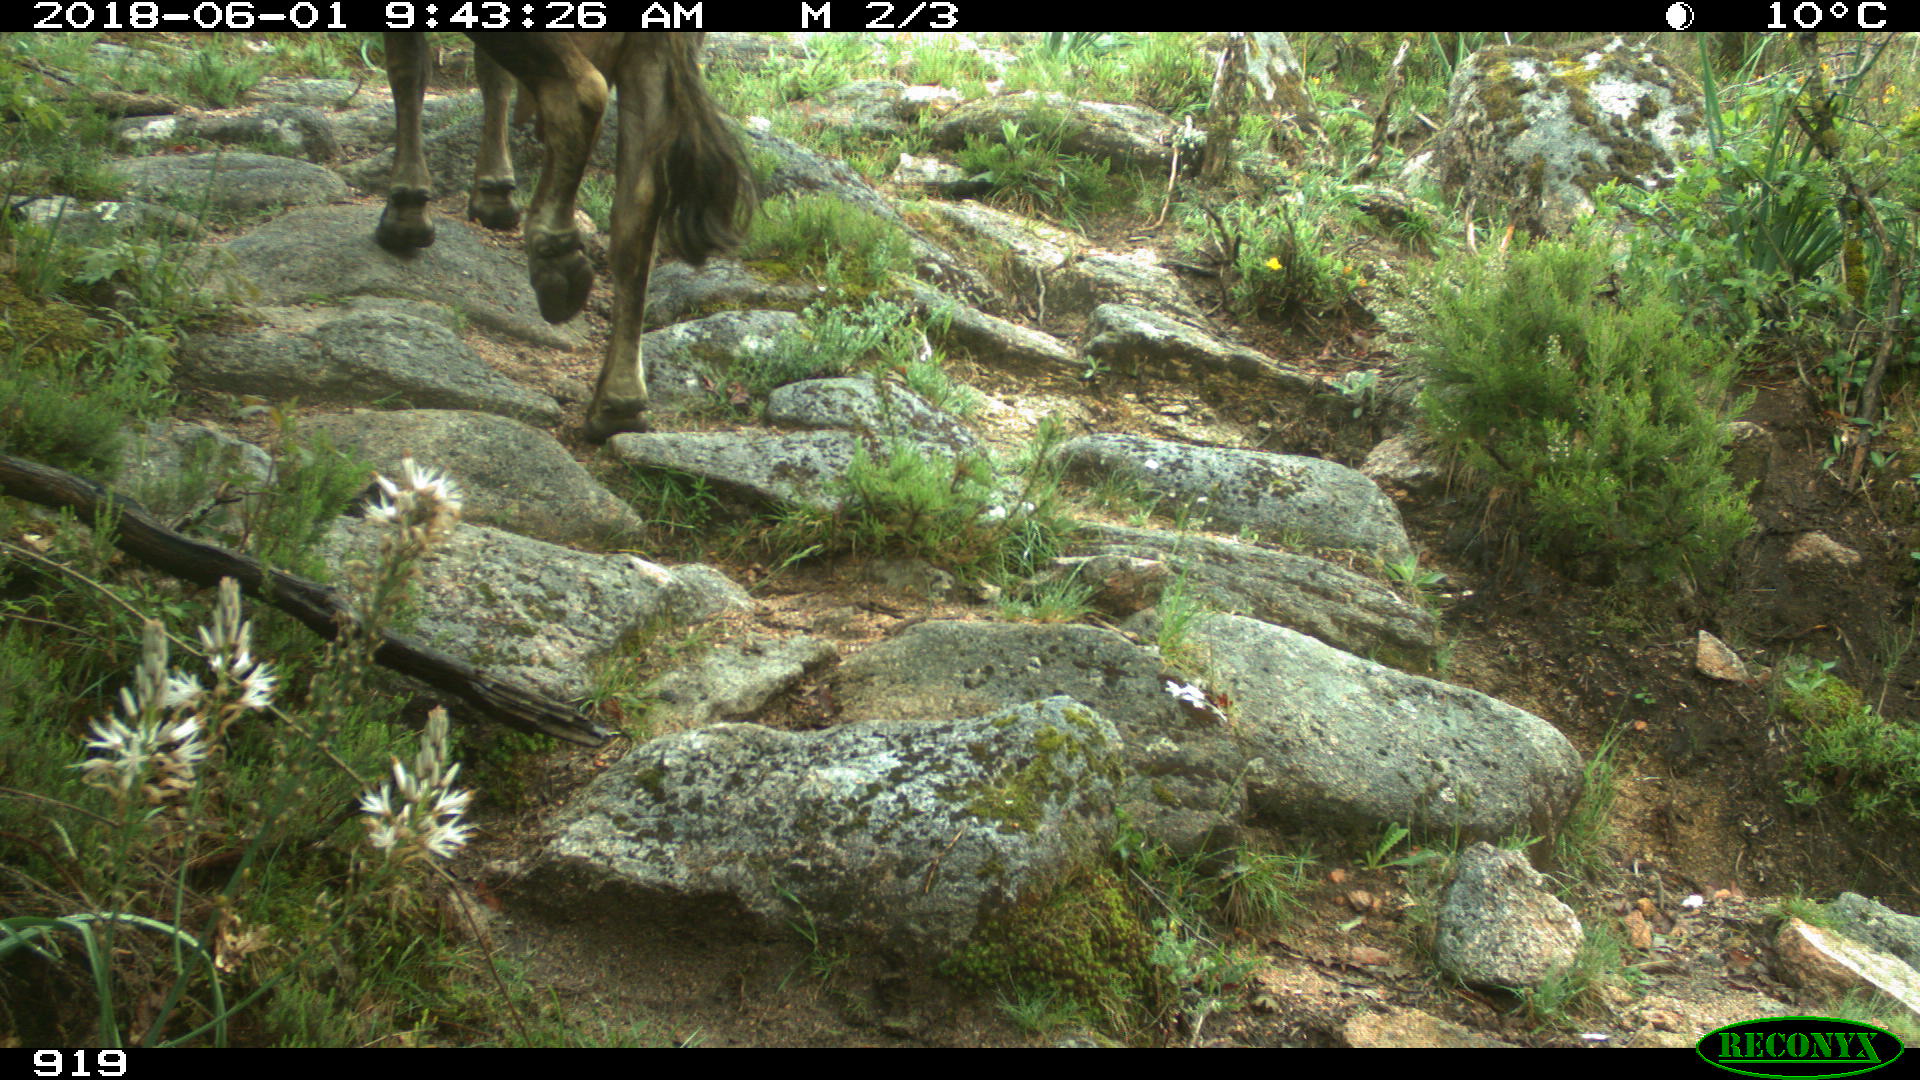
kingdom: Animalia
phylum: Chordata
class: Mammalia
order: Artiodactyla
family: Bovidae
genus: Bos
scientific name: Bos taurus
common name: Domesticated cattle
